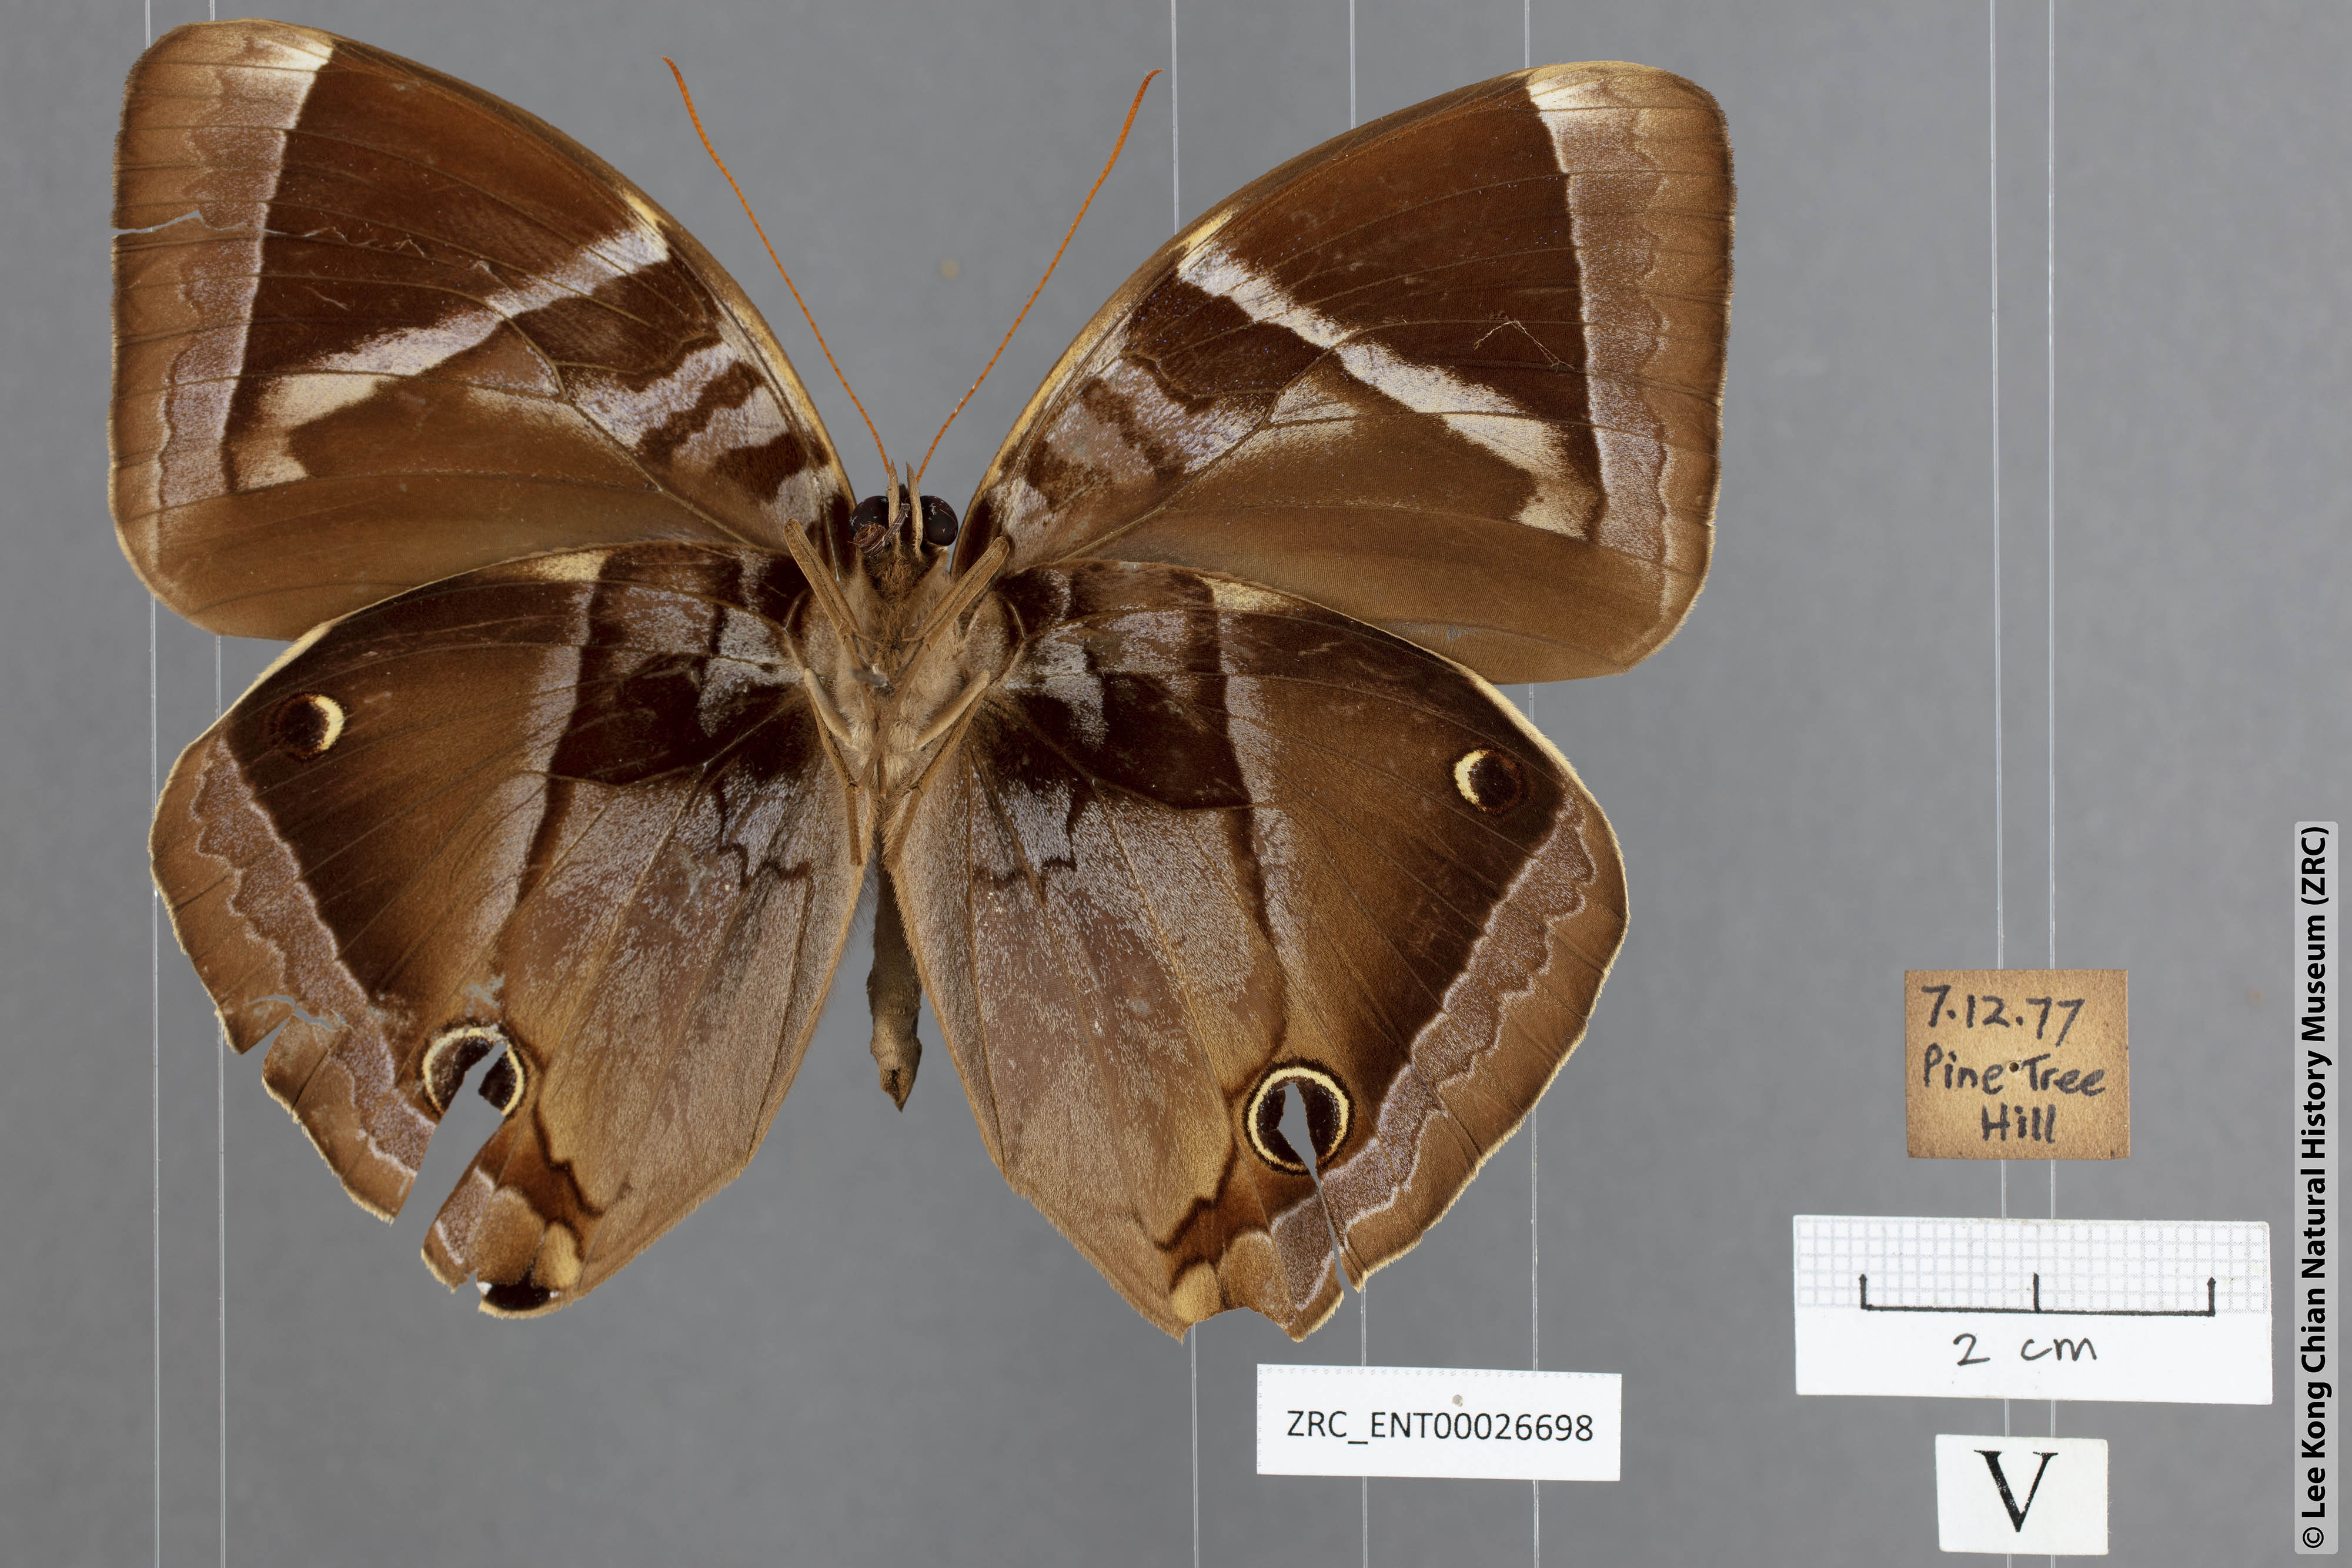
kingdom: Animalia
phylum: Arthropoda
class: Insecta
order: Lepidoptera
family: Nymphalidae
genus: Thaumantis
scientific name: Thaumantis odana
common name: Malayan jungle glory
